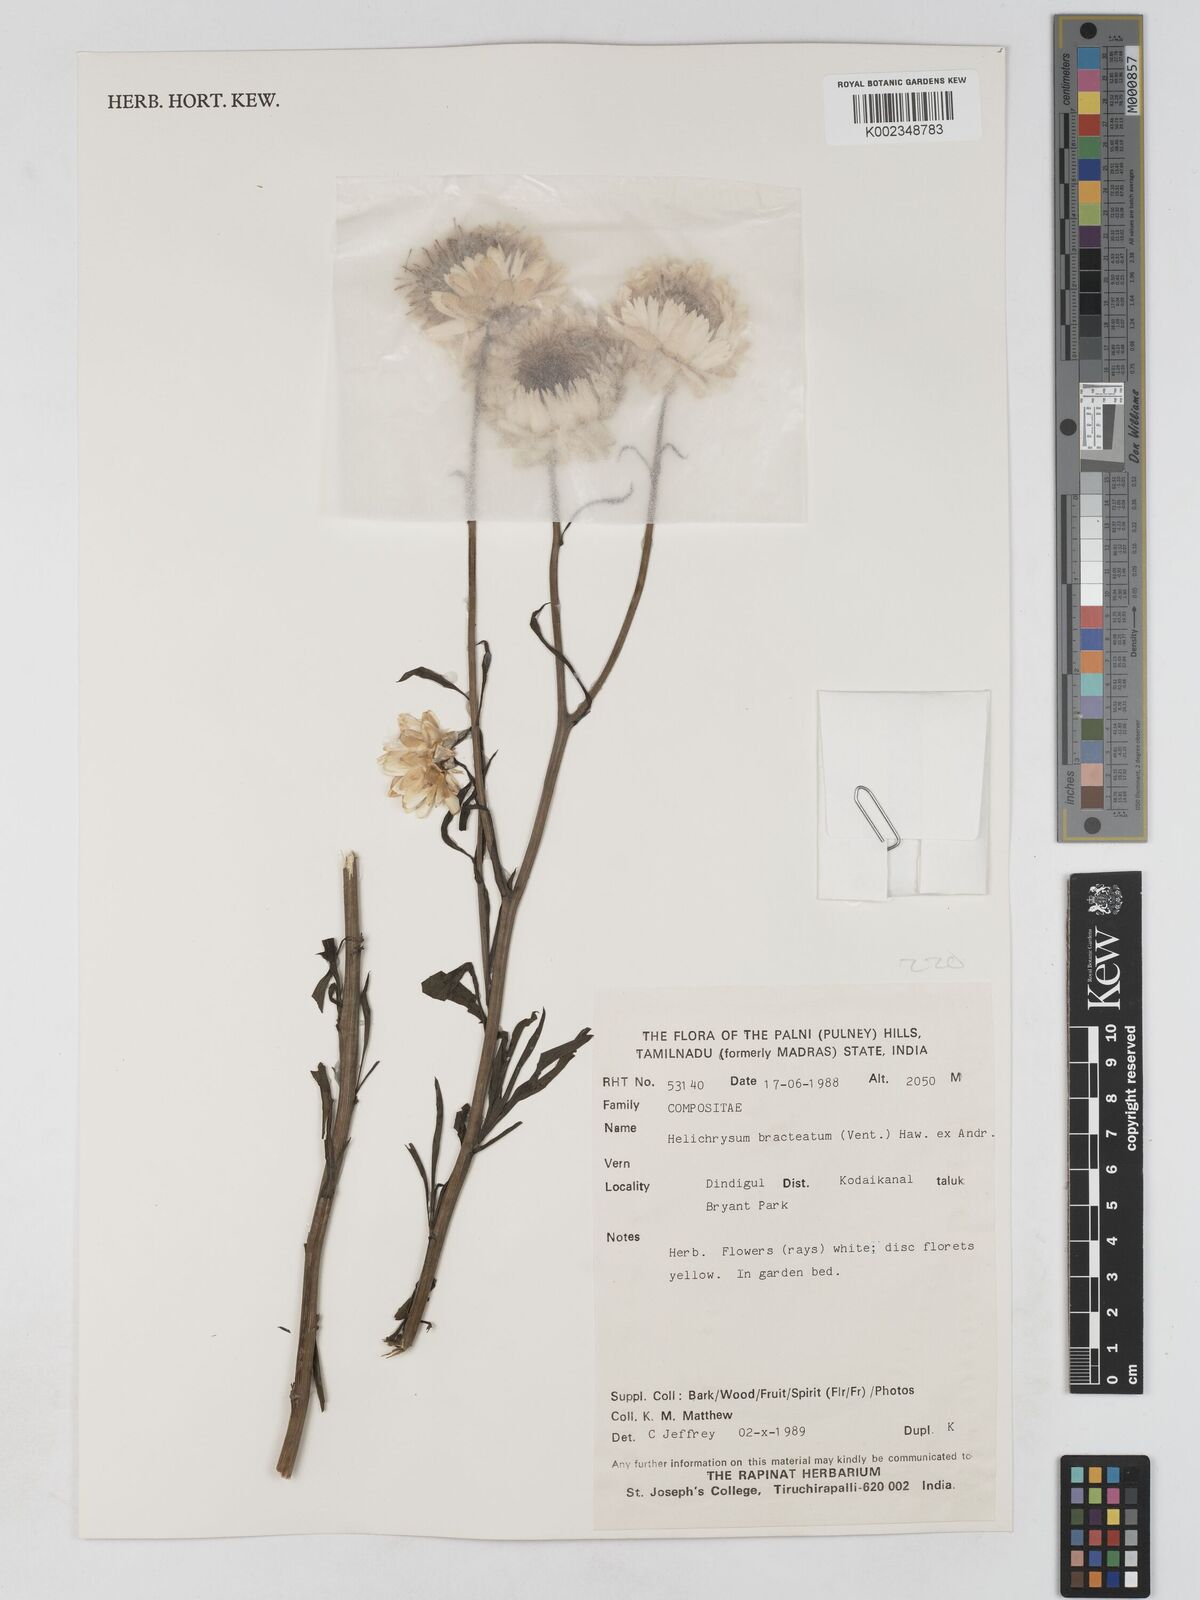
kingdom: Plantae
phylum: Tracheophyta
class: Magnoliopsida
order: Asterales
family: Asteraceae
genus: Xerochrysum
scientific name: Xerochrysum bracteatum
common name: Bracted strawflower
